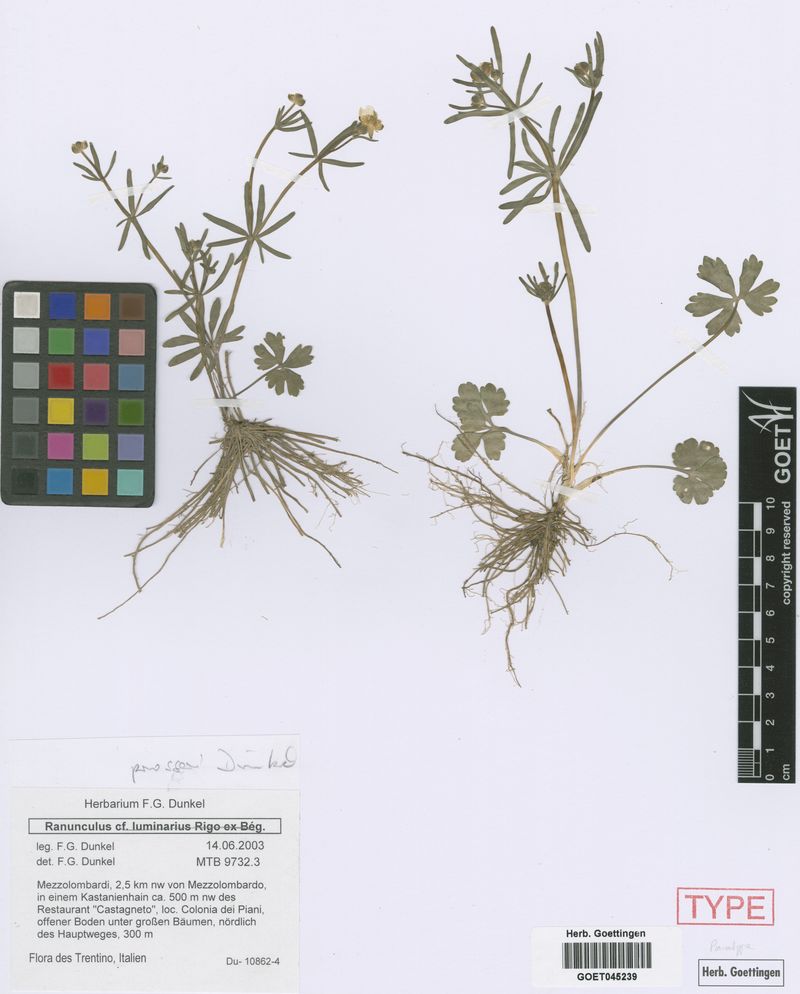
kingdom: Plantae
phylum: Tracheophyta
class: Magnoliopsida
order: Ranunculales
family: Ranunculaceae
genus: Ranunculus
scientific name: Ranunculus prosseri
